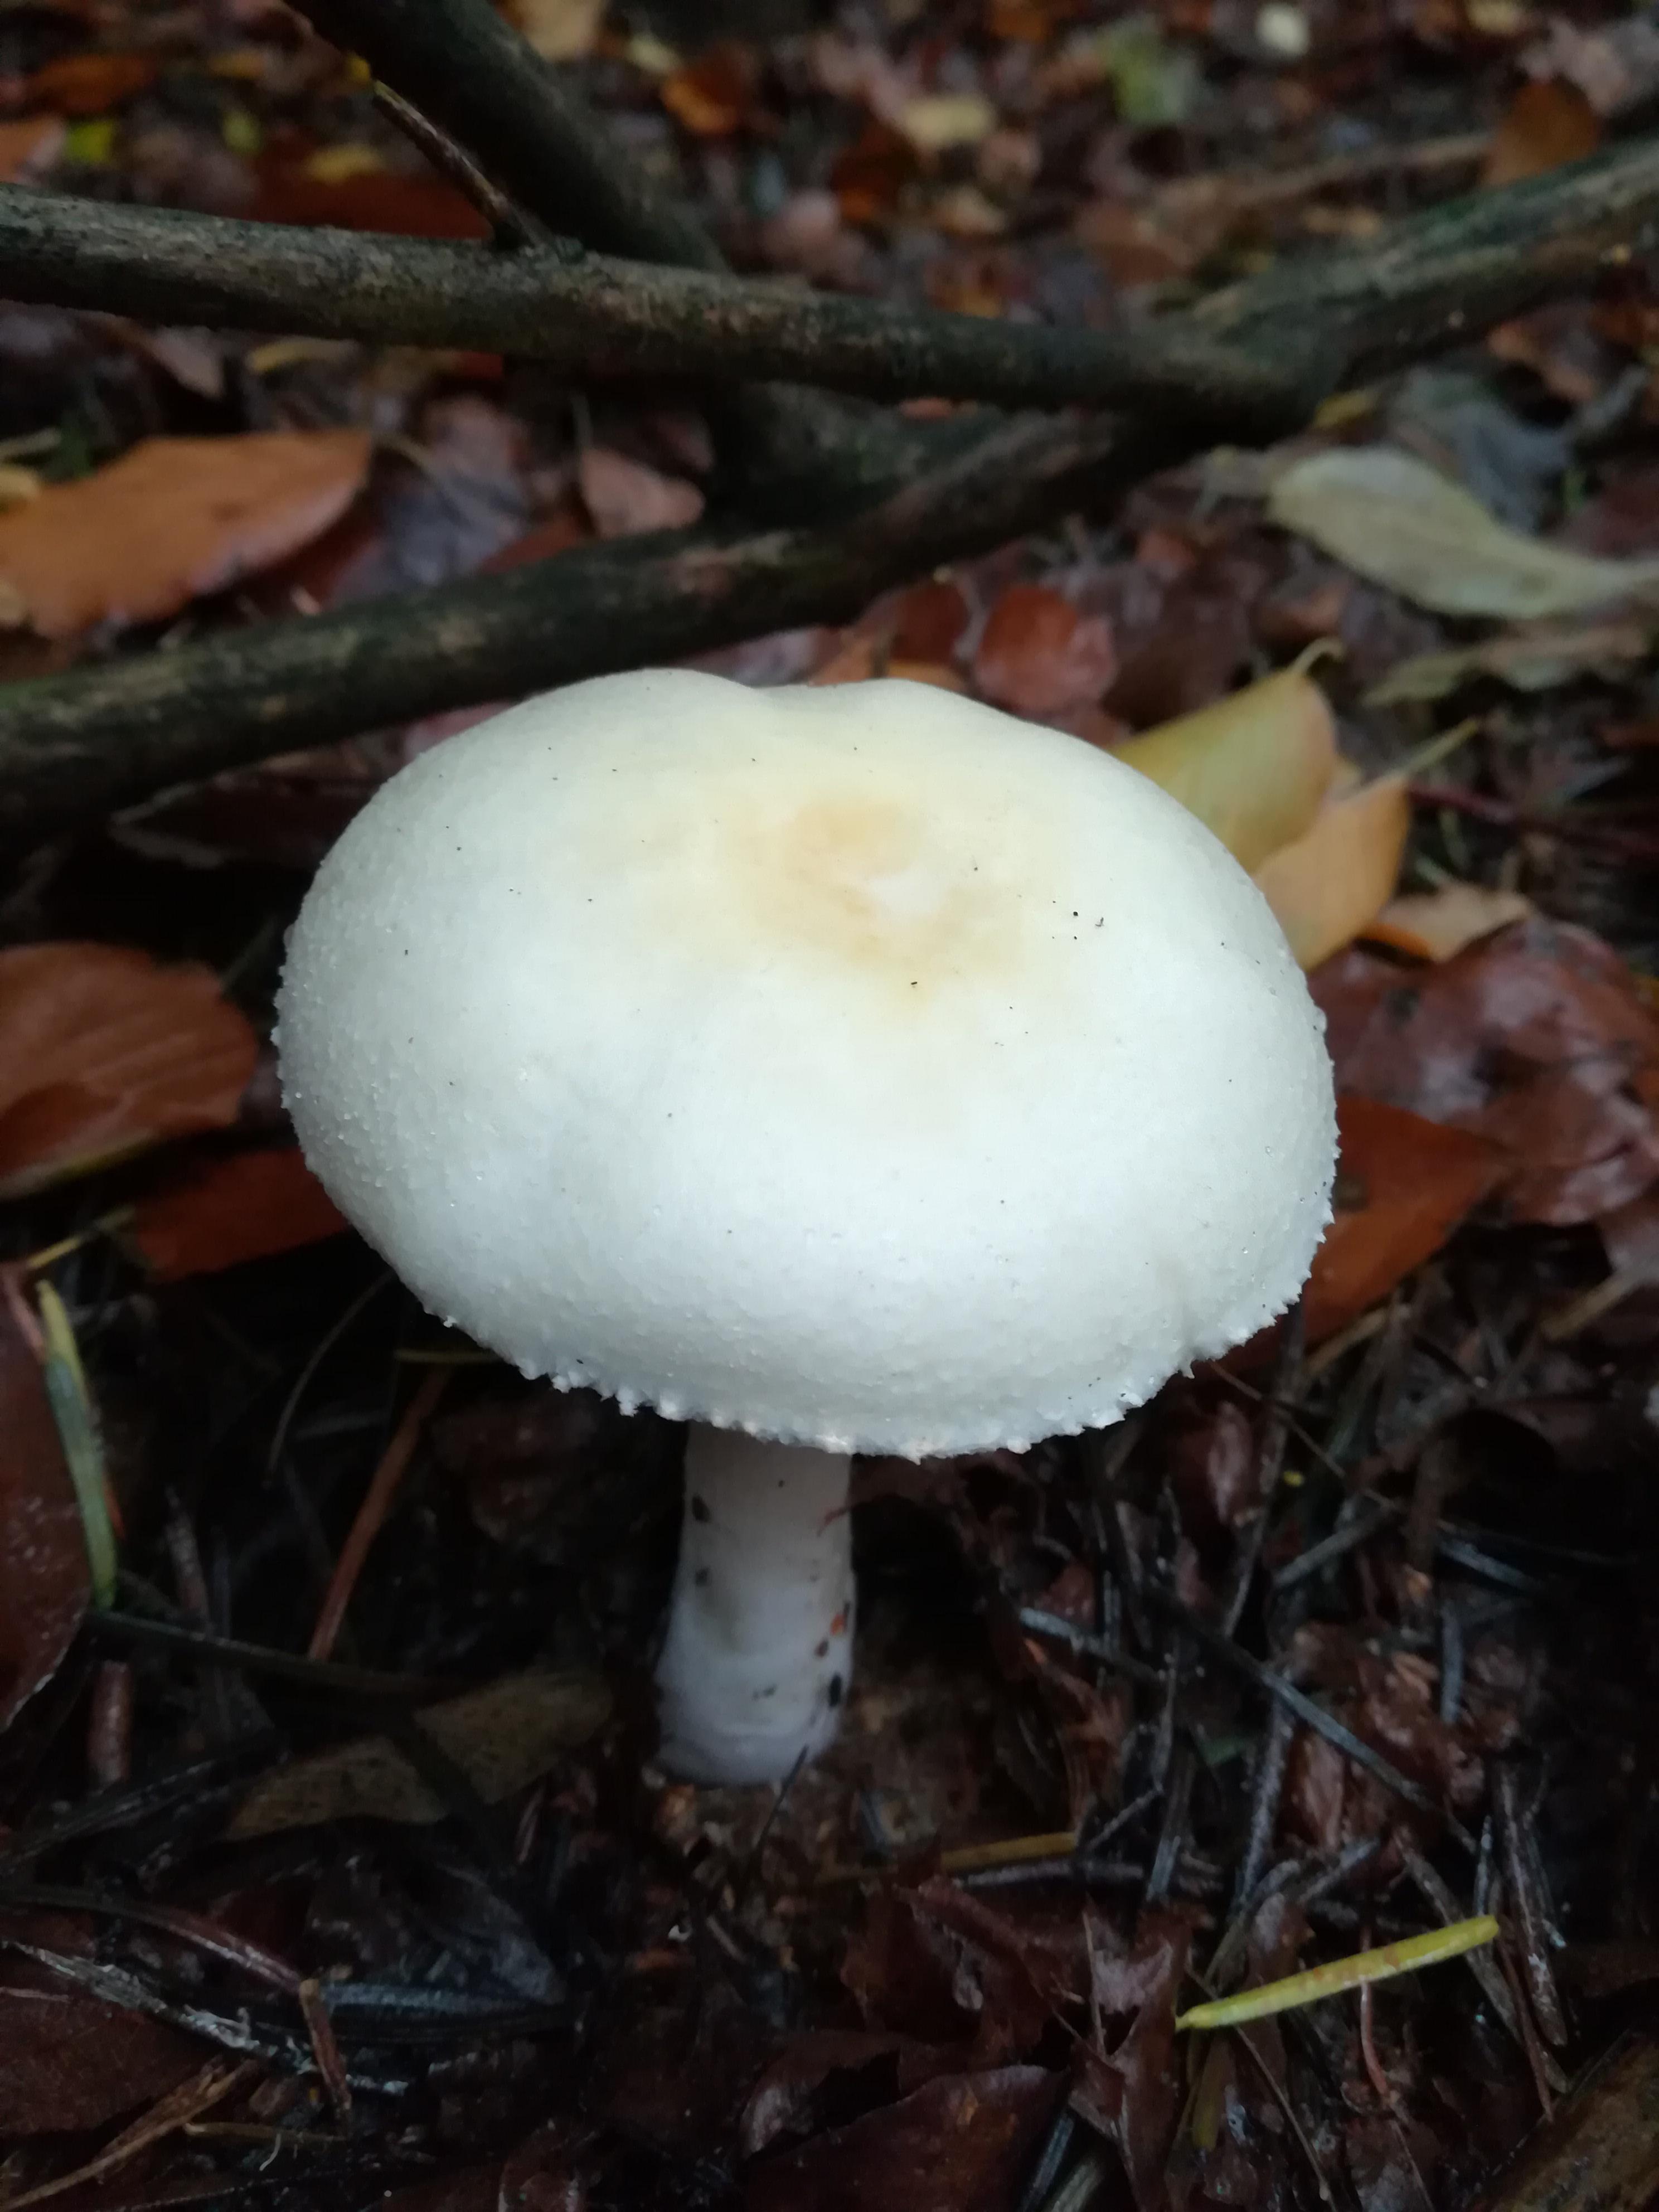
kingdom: Fungi
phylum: Basidiomycota
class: Agaricomycetes
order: Agaricales
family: Agaricaceae
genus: Agaricus
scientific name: Agaricus
